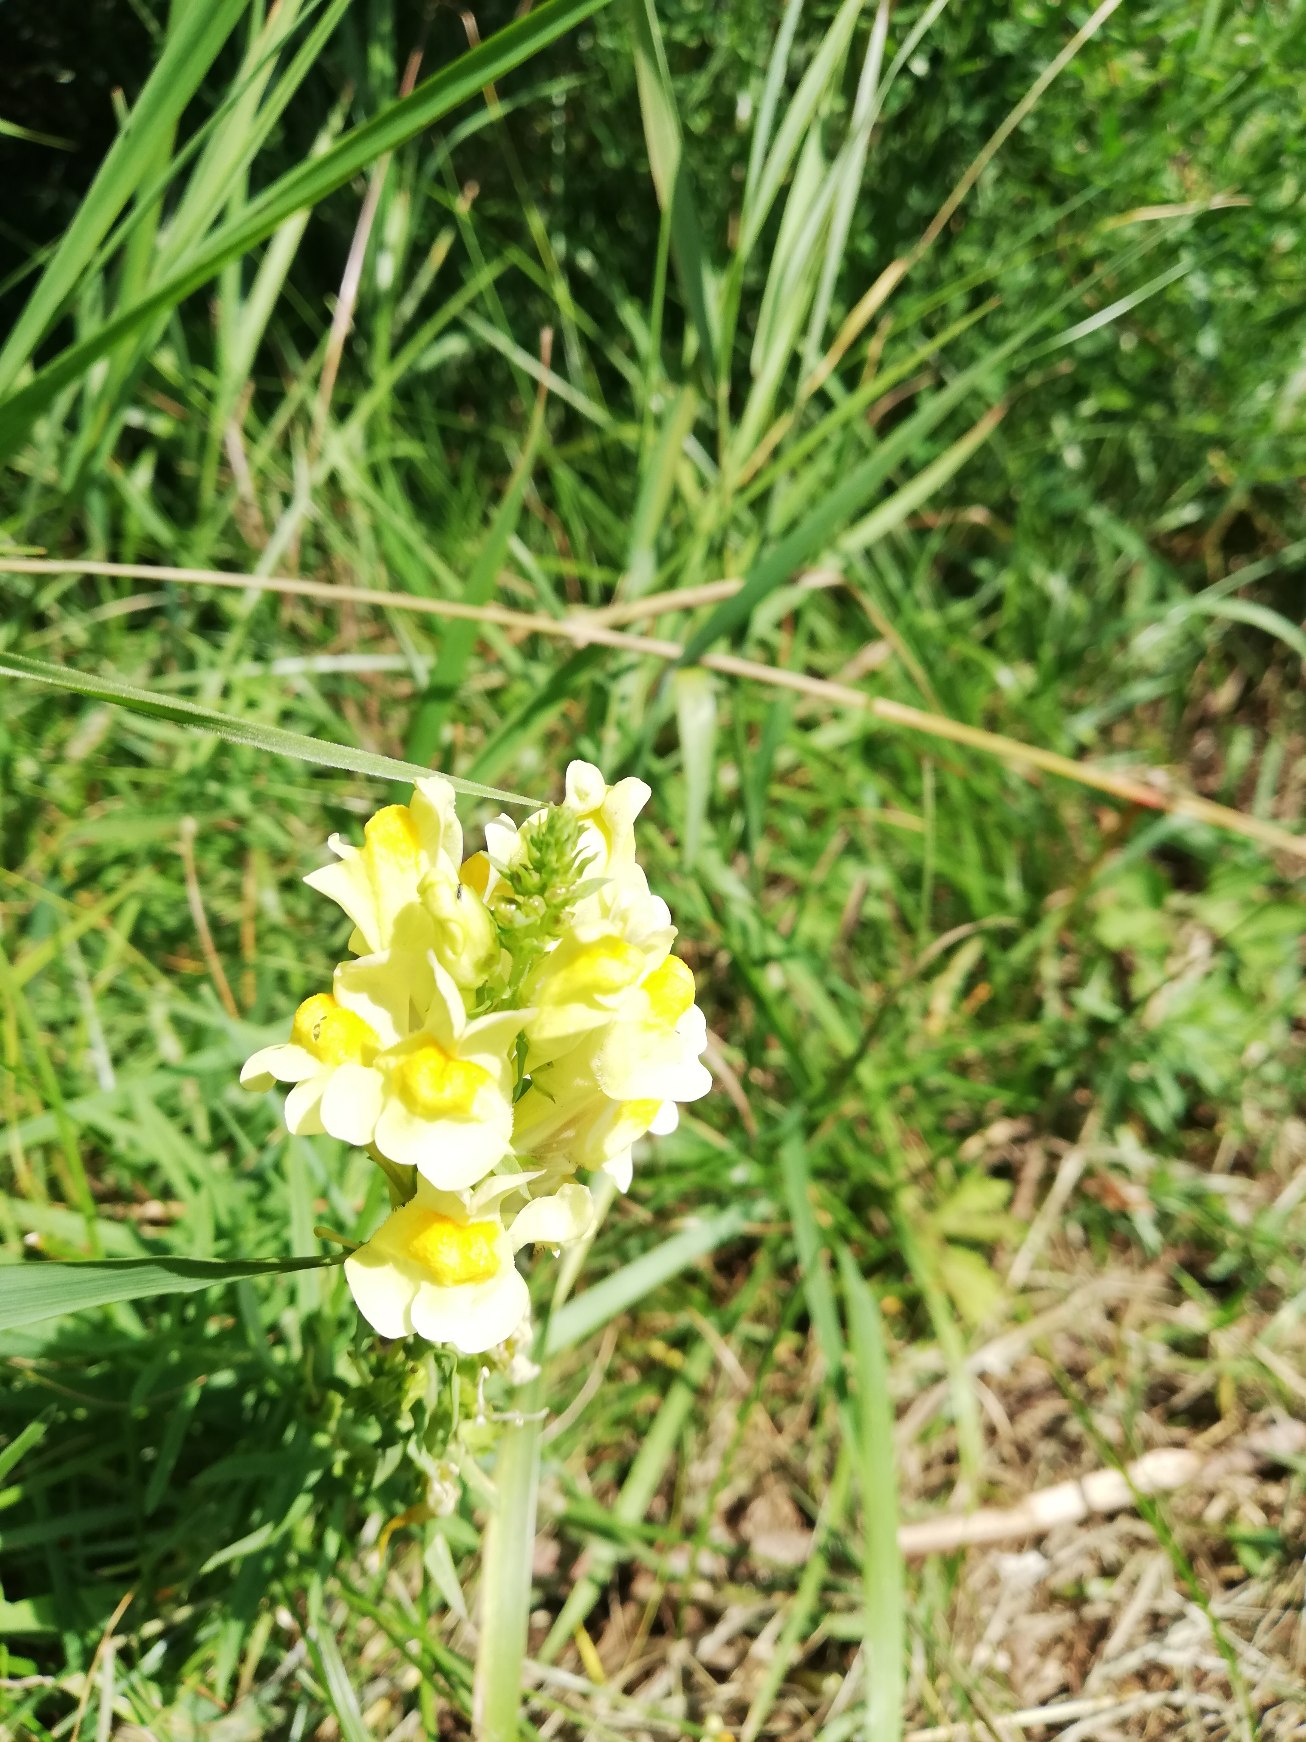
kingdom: Plantae
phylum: Tracheophyta
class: Magnoliopsida
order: Lamiales
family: Plantaginaceae
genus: Linaria
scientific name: Linaria vulgaris
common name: Almindelig torskemund
